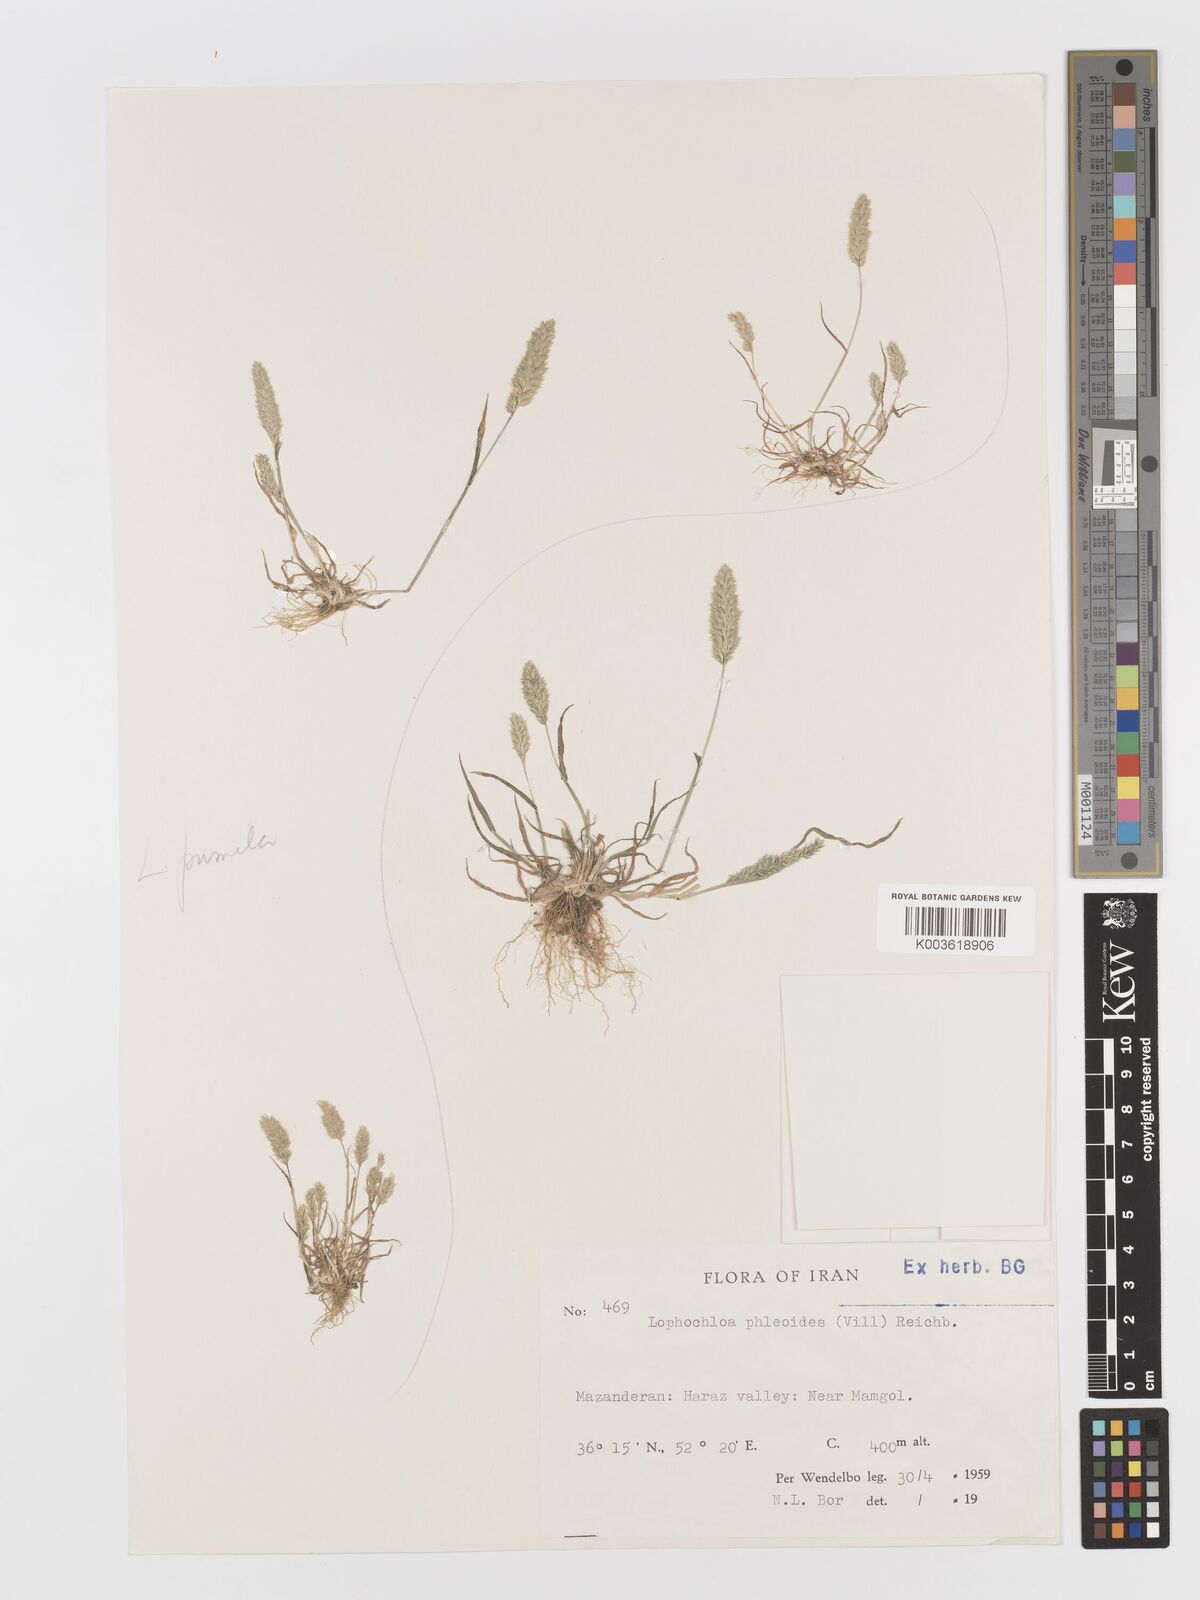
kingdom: Plantae
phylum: Tracheophyta
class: Liliopsida
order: Poales
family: Poaceae
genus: Rostraria
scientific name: Rostraria cristata
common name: Mediterranean hair-grass
